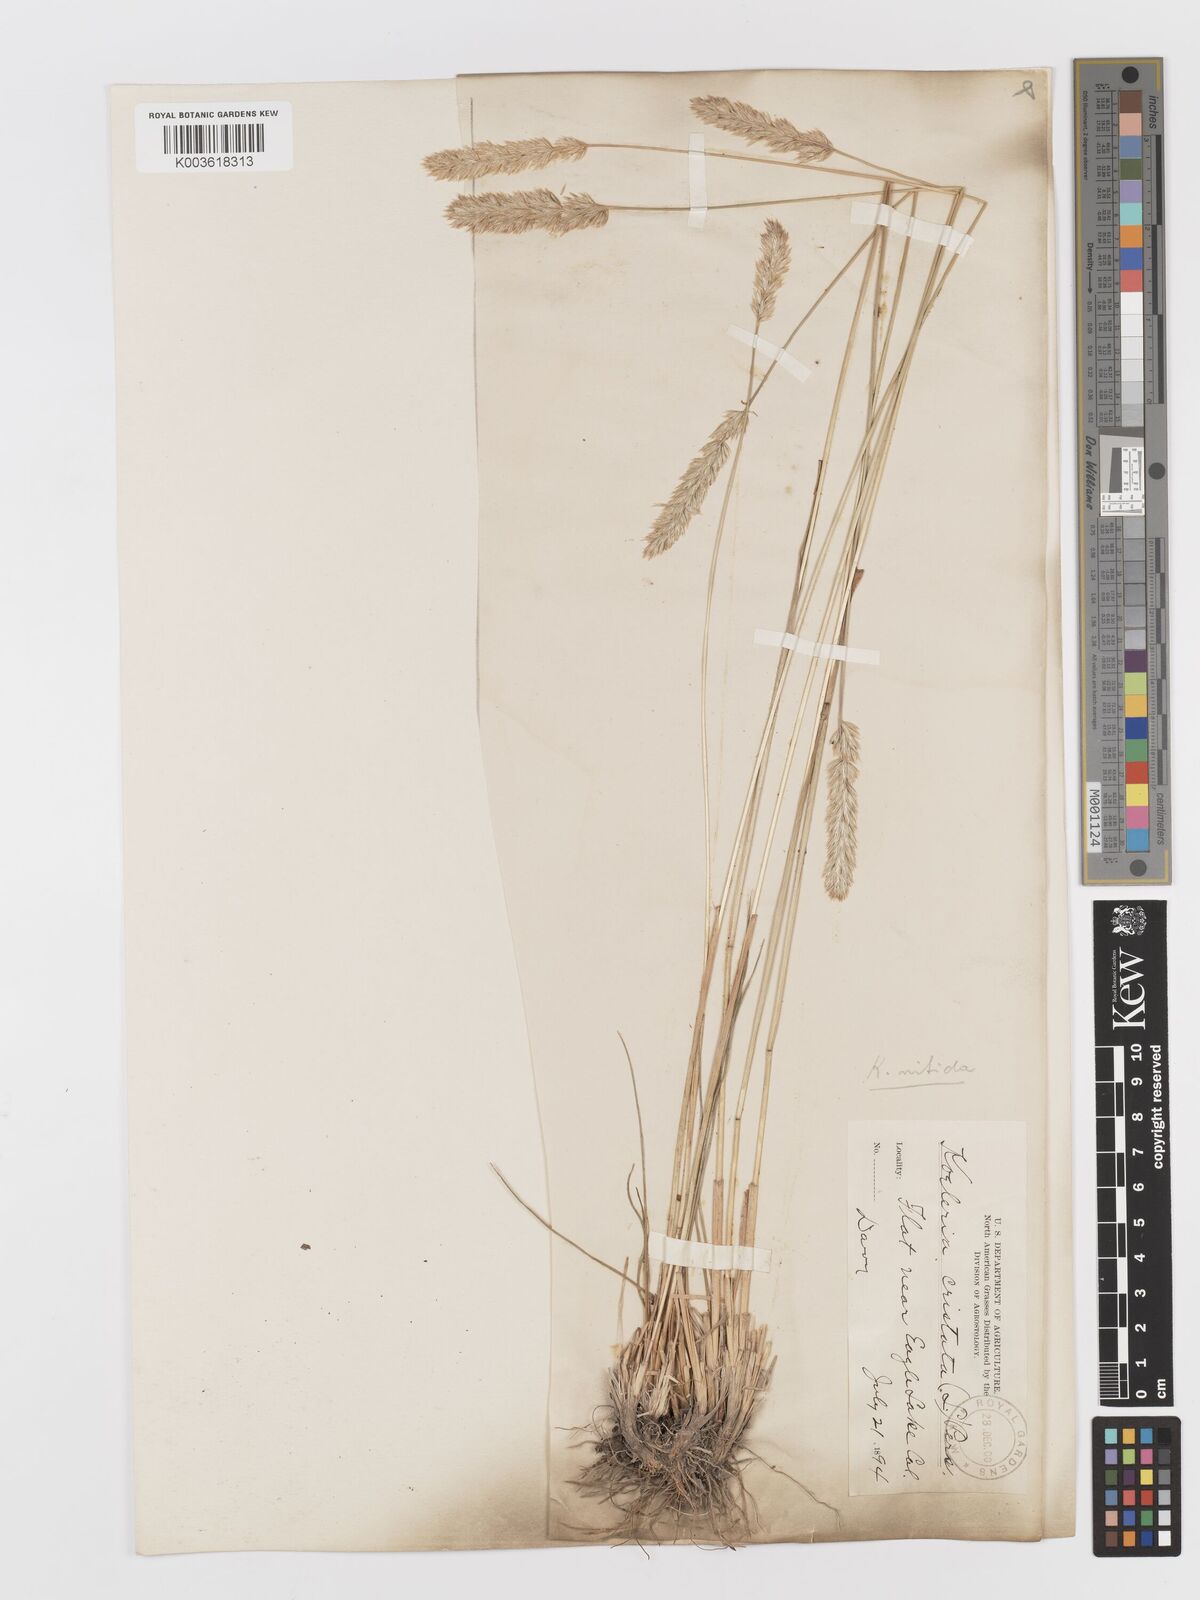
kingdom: Plantae
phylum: Tracheophyta
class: Liliopsida
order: Poales
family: Poaceae
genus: Koeleria
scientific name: Koeleria macrantha
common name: Crested hair-grass
